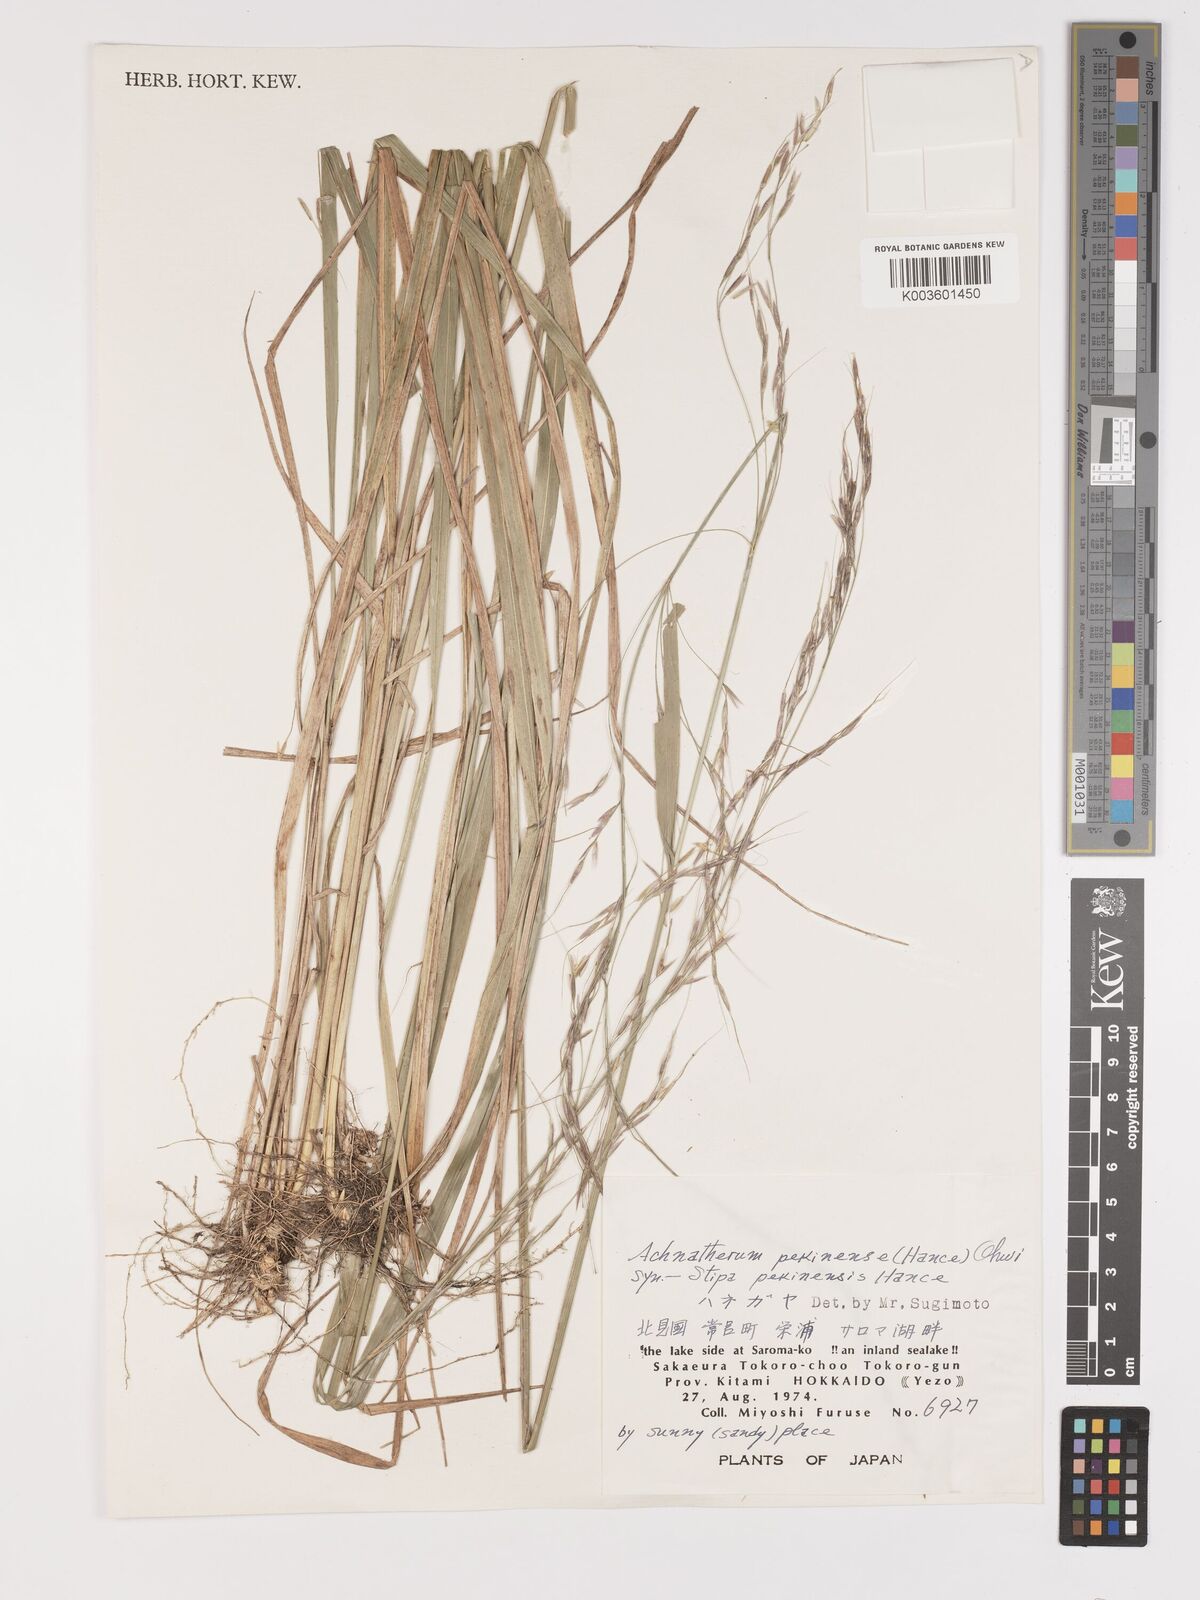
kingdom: Plantae
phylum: Tracheophyta
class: Liliopsida
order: Poales
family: Poaceae
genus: Achnatherum
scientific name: Achnatherum pekinense
